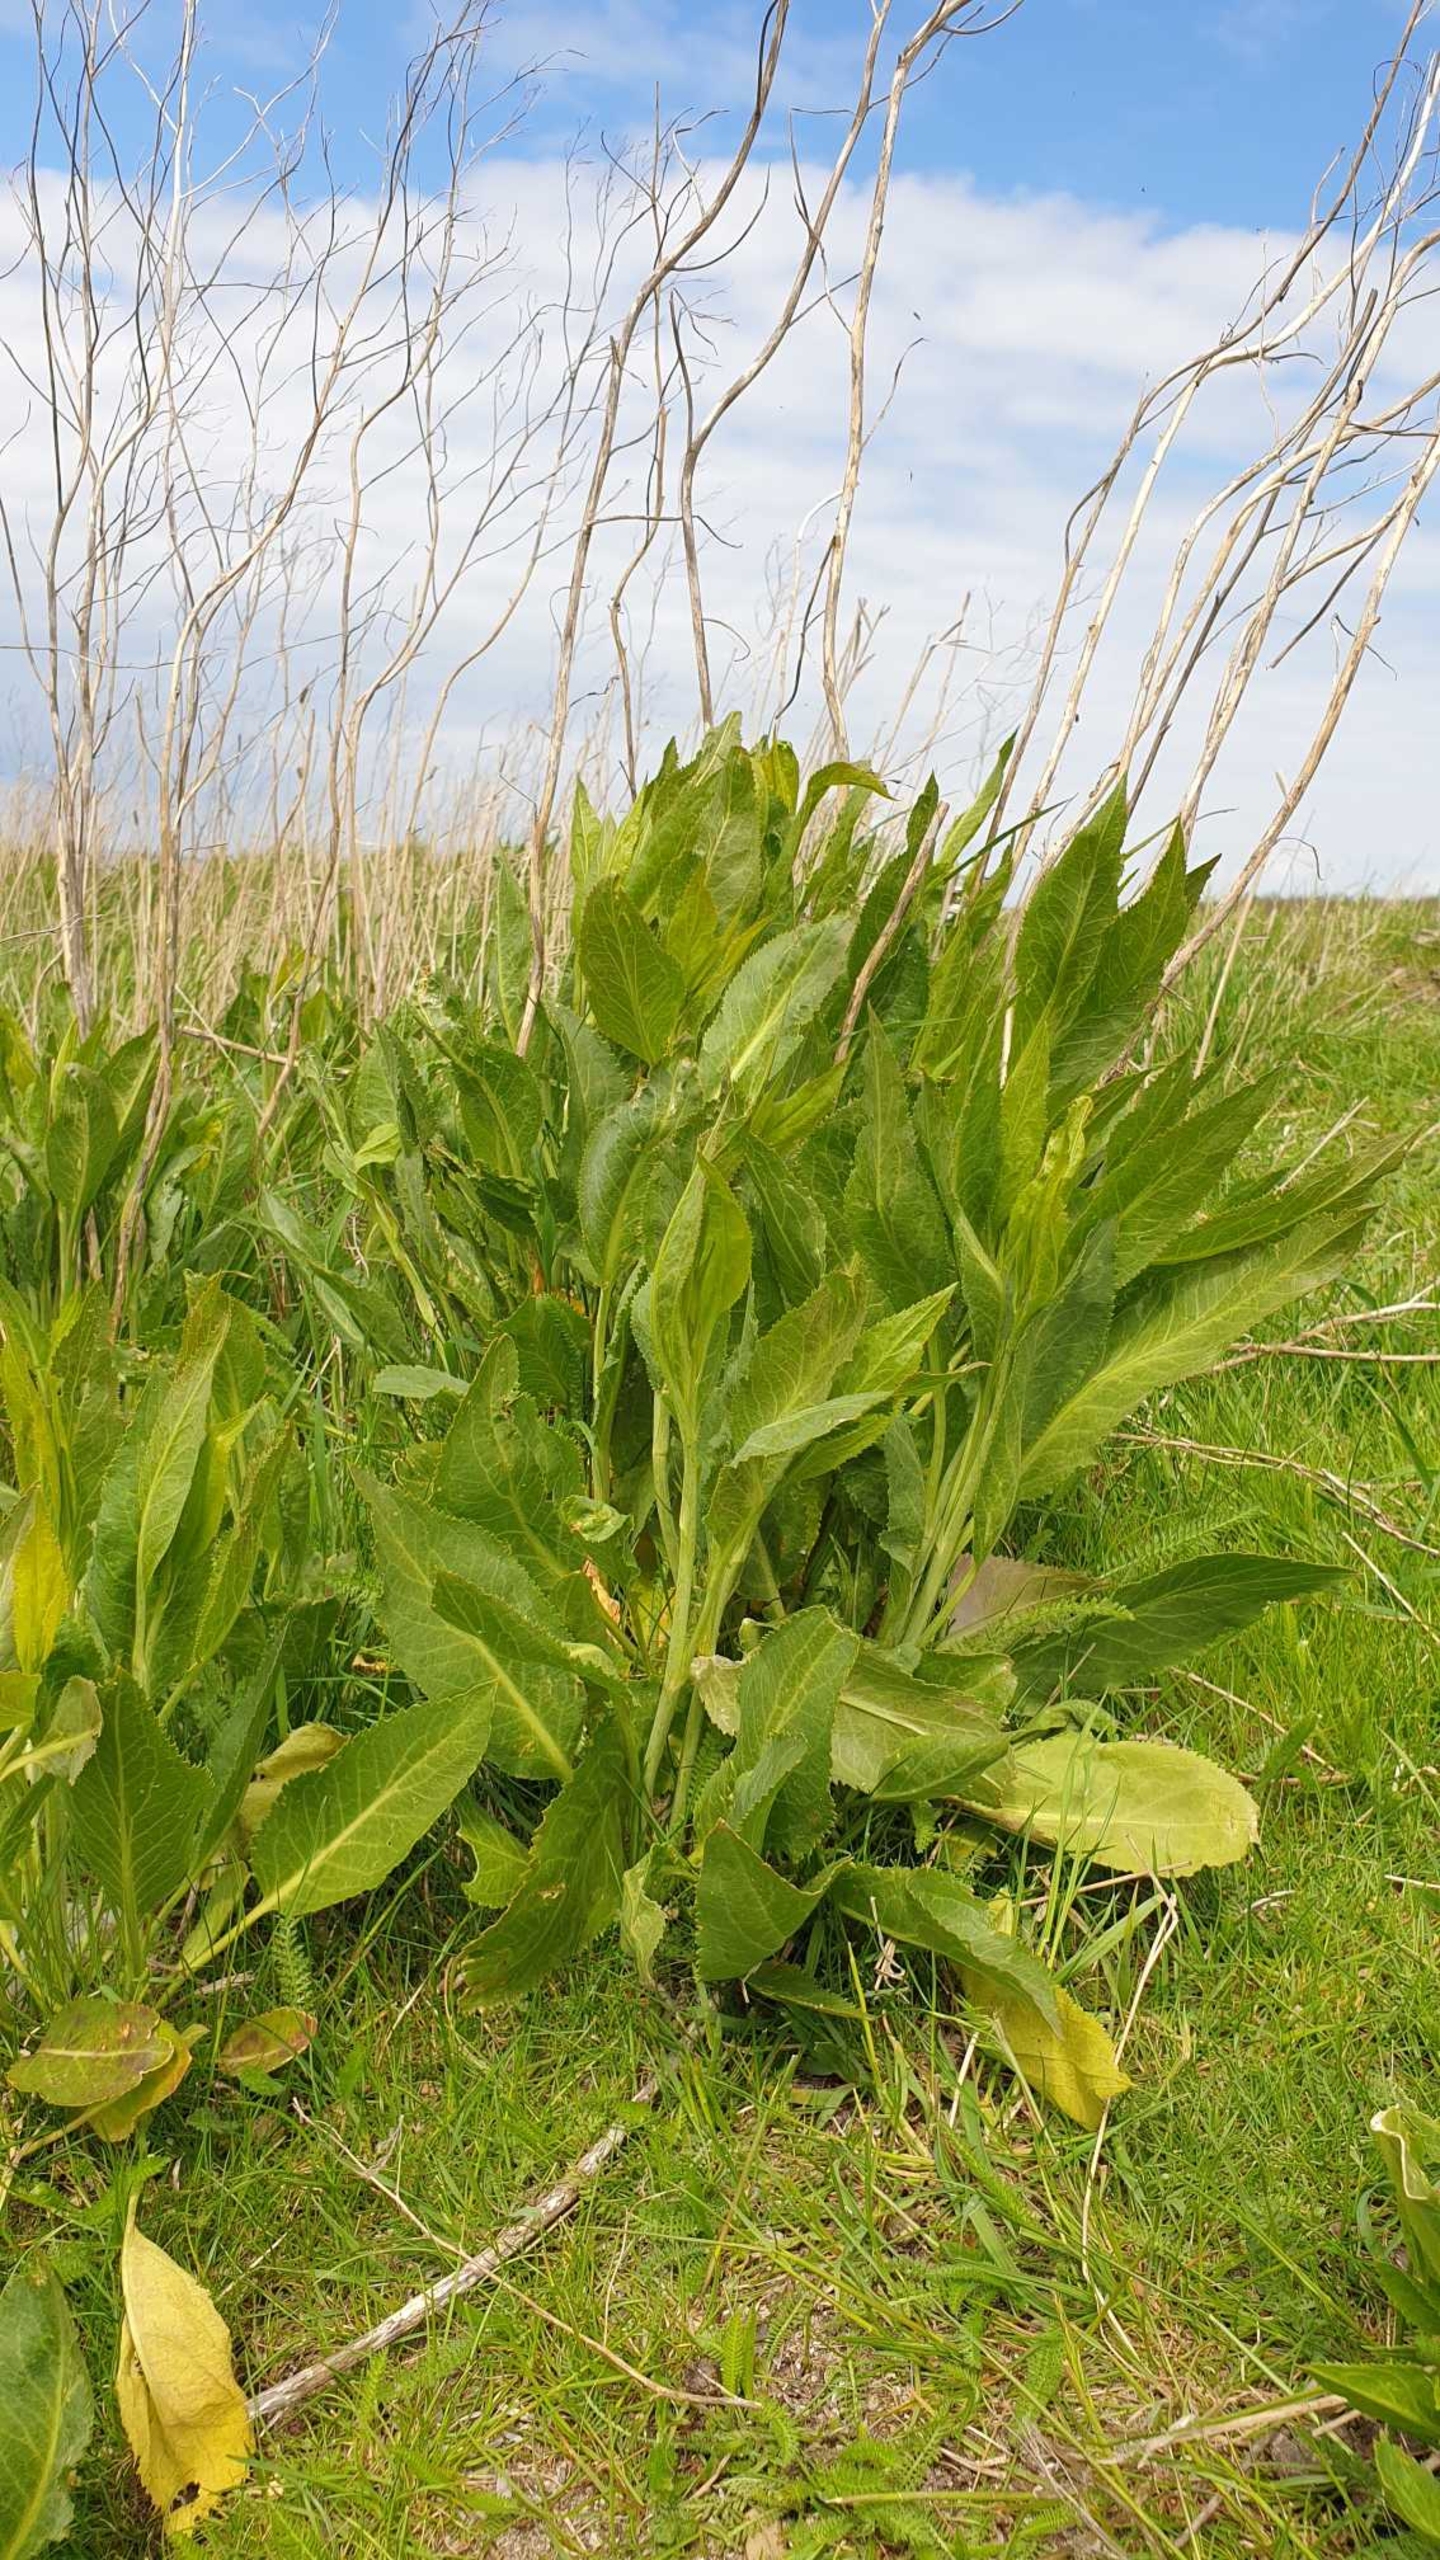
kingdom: Plantae
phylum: Tracheophyta
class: Magnoliopsida
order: Brassicales
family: Brassicaceae
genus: Lepidium
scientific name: Lepidium latifolium
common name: Strand-karse
